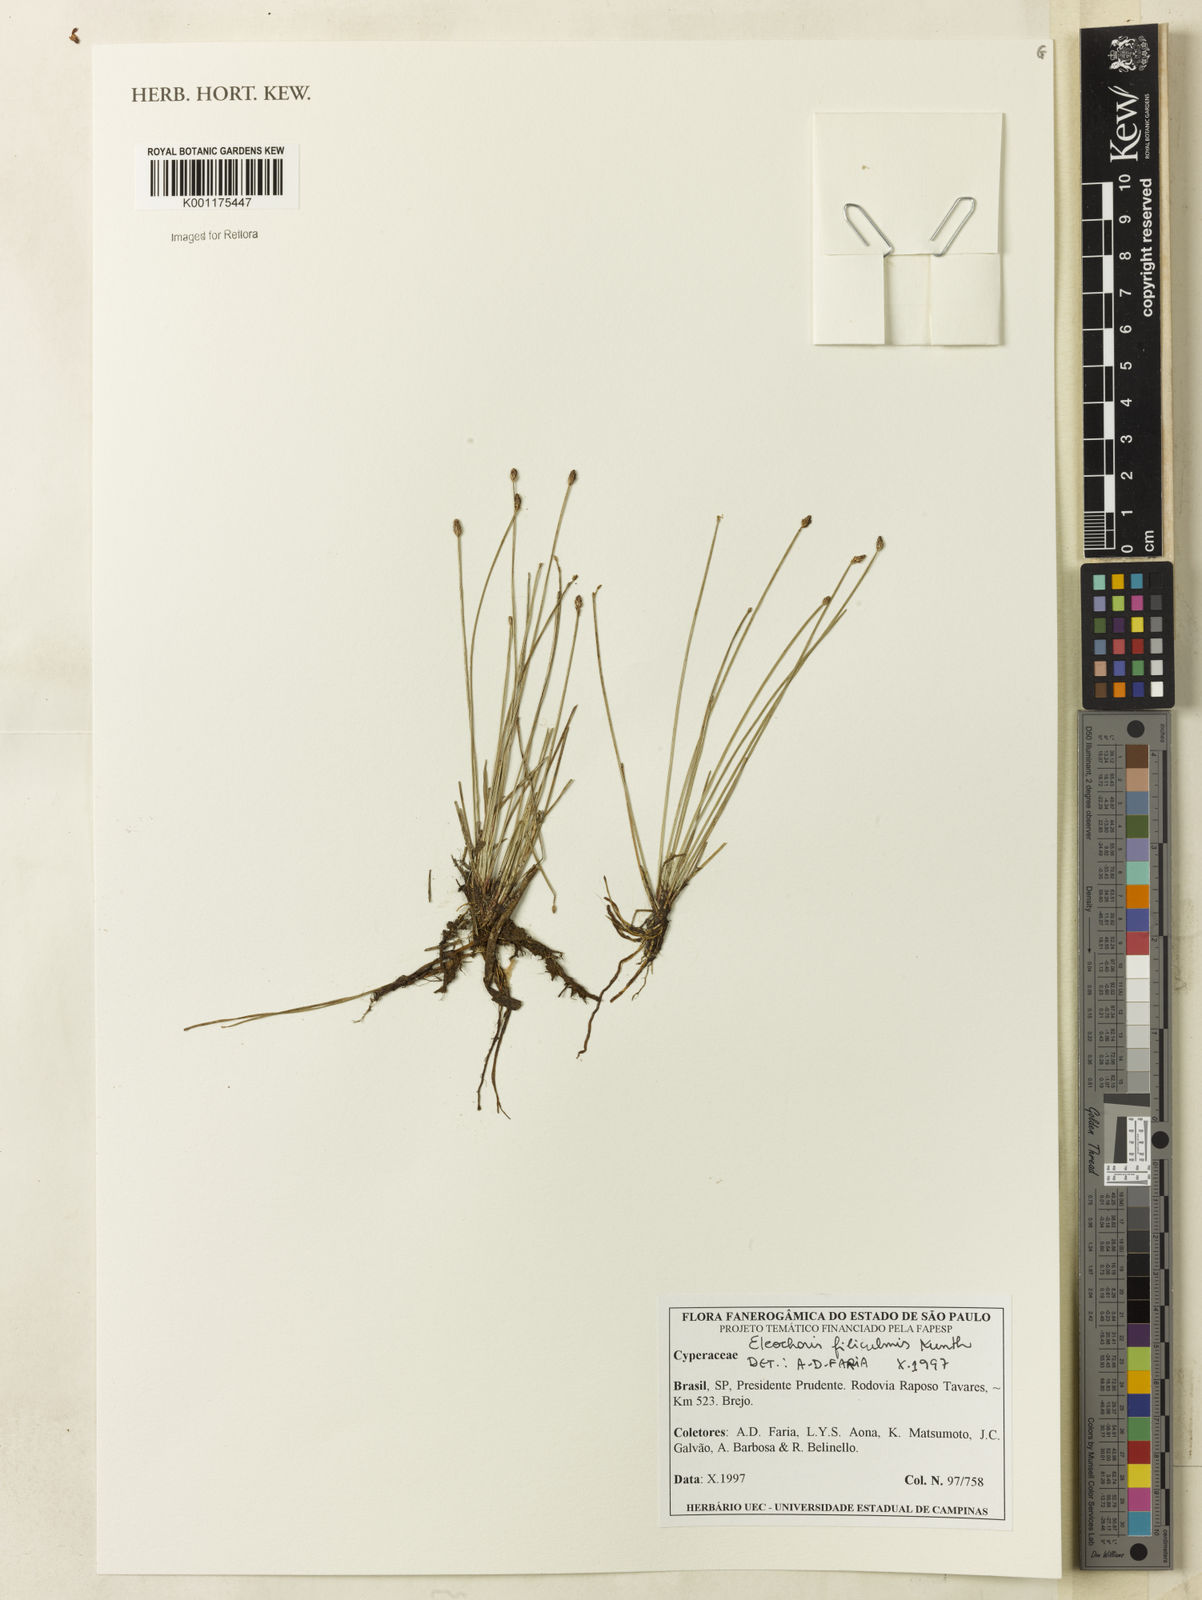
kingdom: Plantae
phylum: Tracheophyta
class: Liliopsida
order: Poales
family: Cyperaceae
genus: Eleocharis
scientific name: Eleocharis filiculmis
